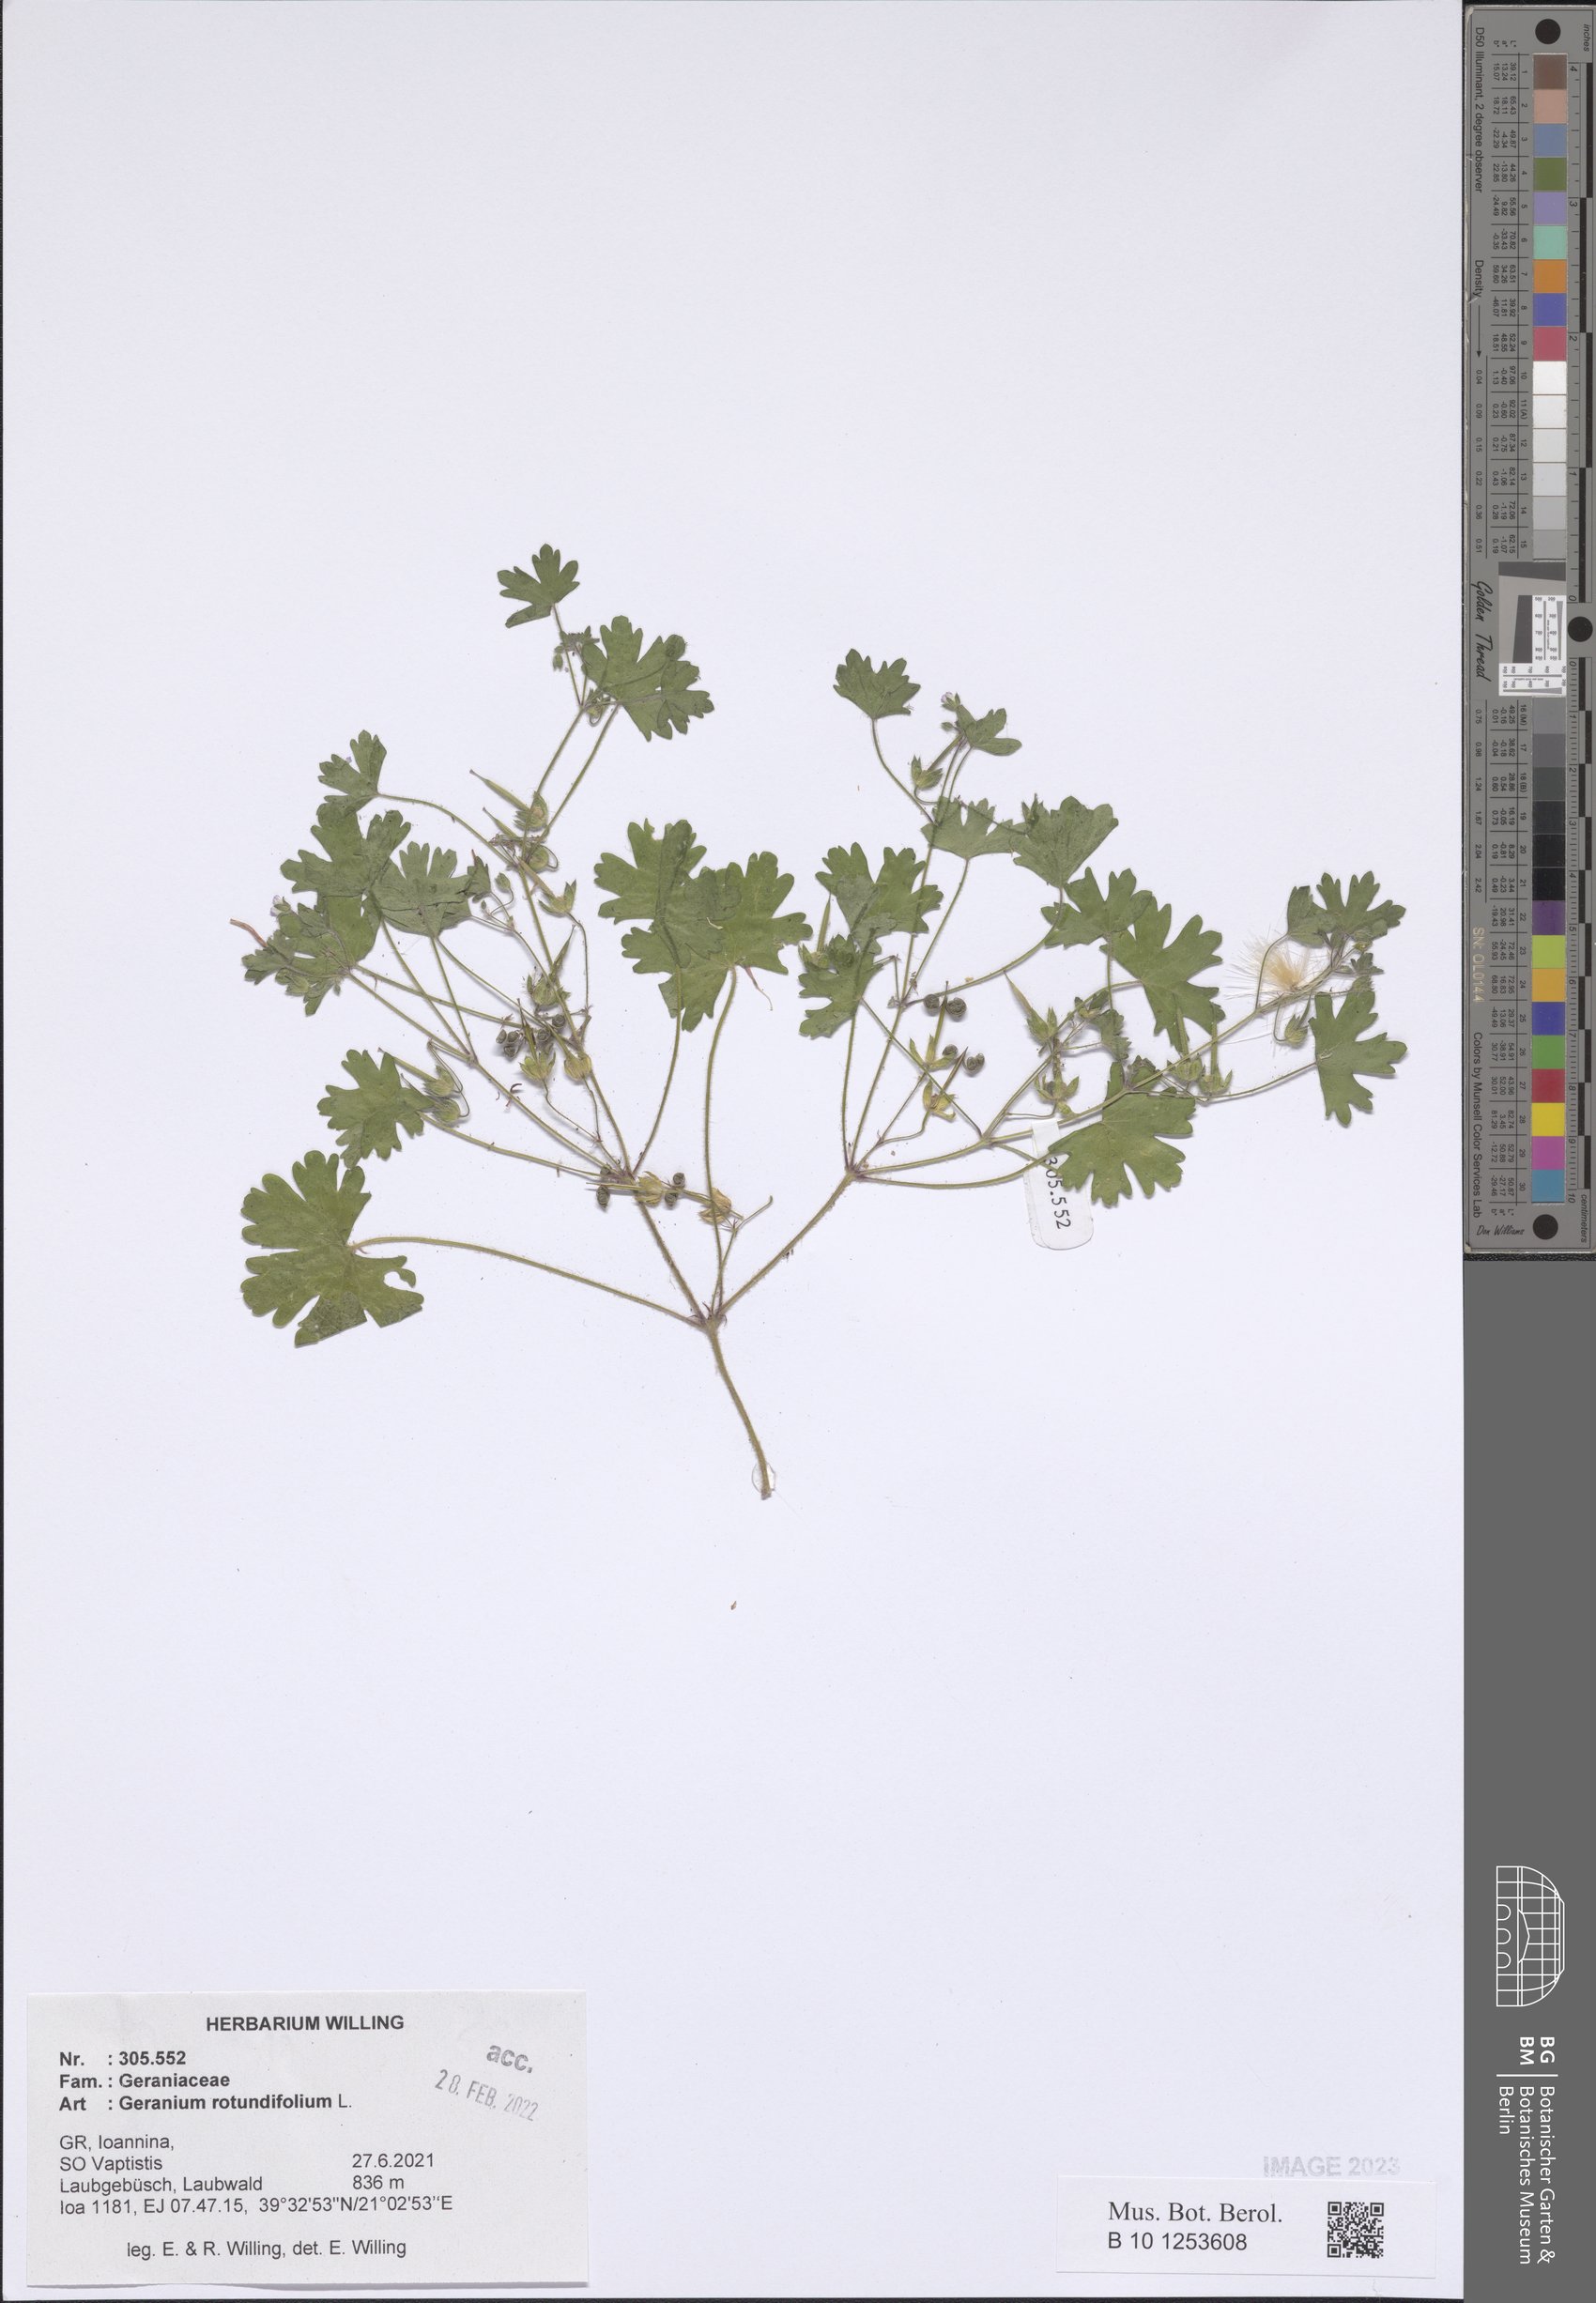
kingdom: Plantae
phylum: Tracheophyta
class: Magnoliopsida
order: Geraniales
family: Geraniaceae
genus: Geranium
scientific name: Geranium rotundifolium
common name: Round-leaved crane's-bill
